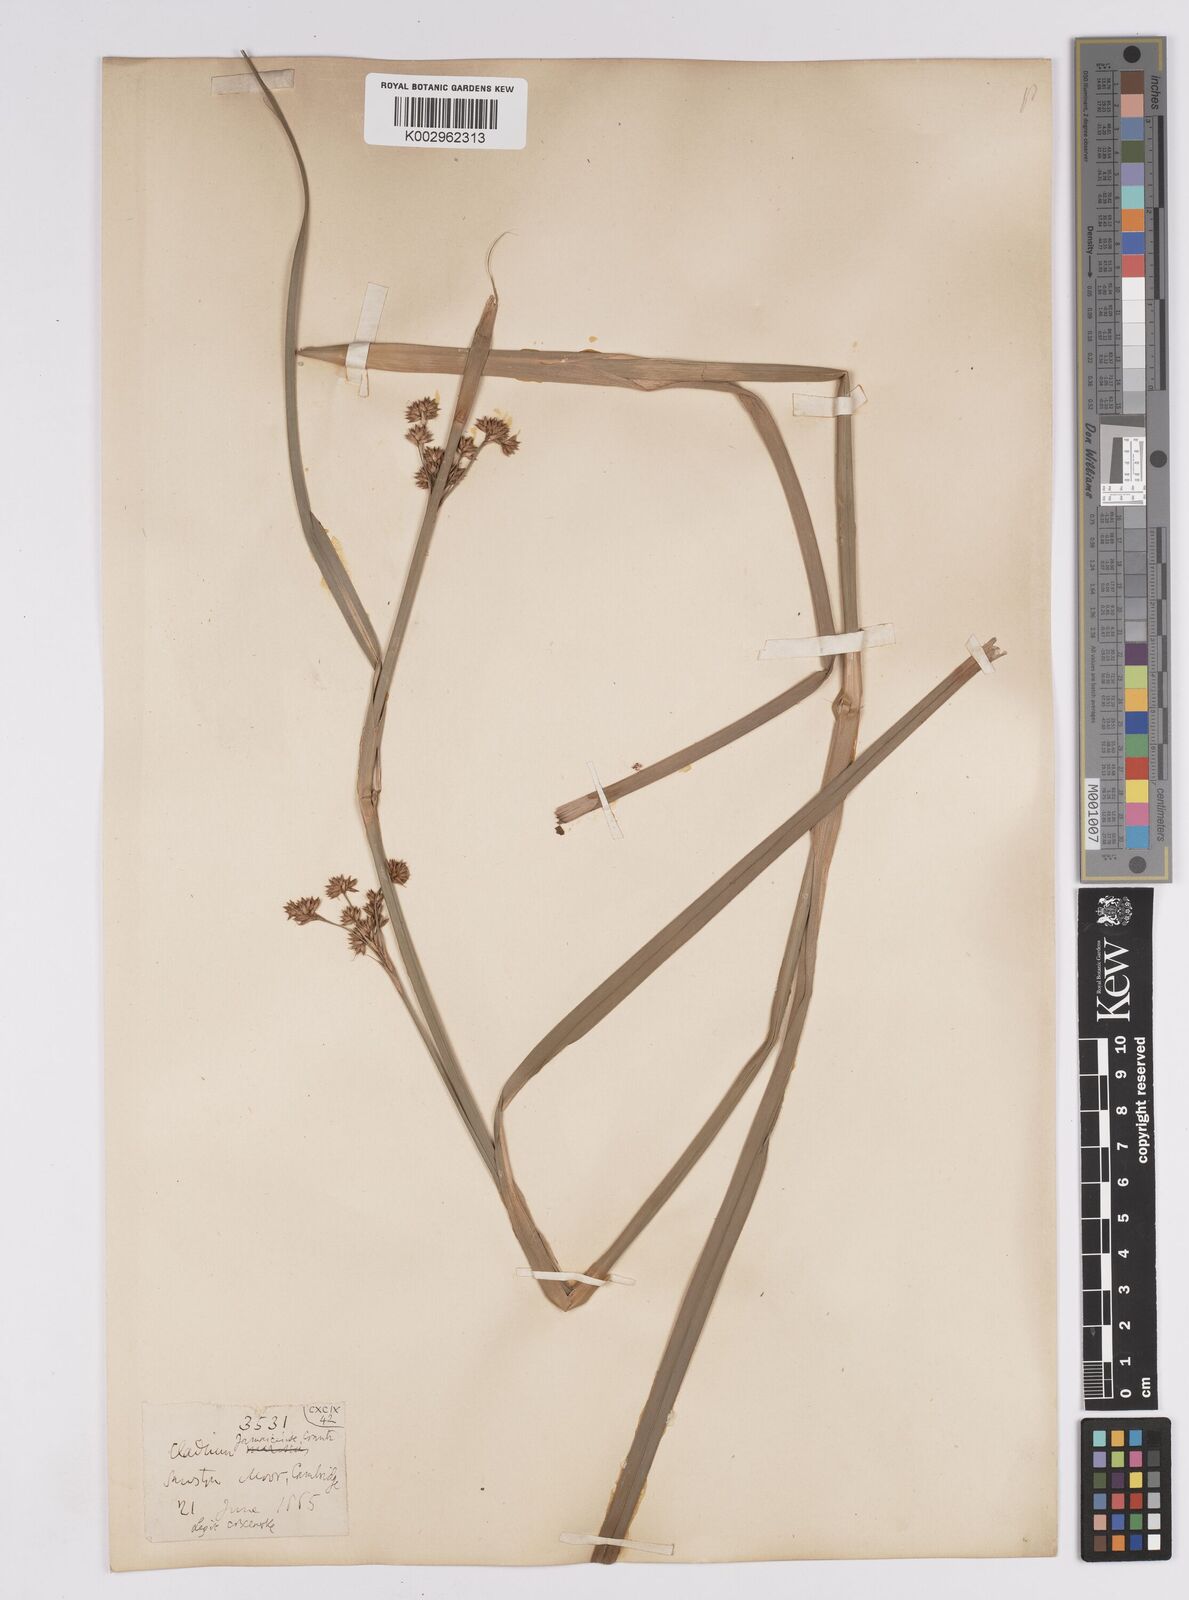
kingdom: Plantae
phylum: Tracheophyta
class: Liliopsida
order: Poales
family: Cyperaceae
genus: Cladium
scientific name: Cladium mariscus
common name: Great fen-sedge
